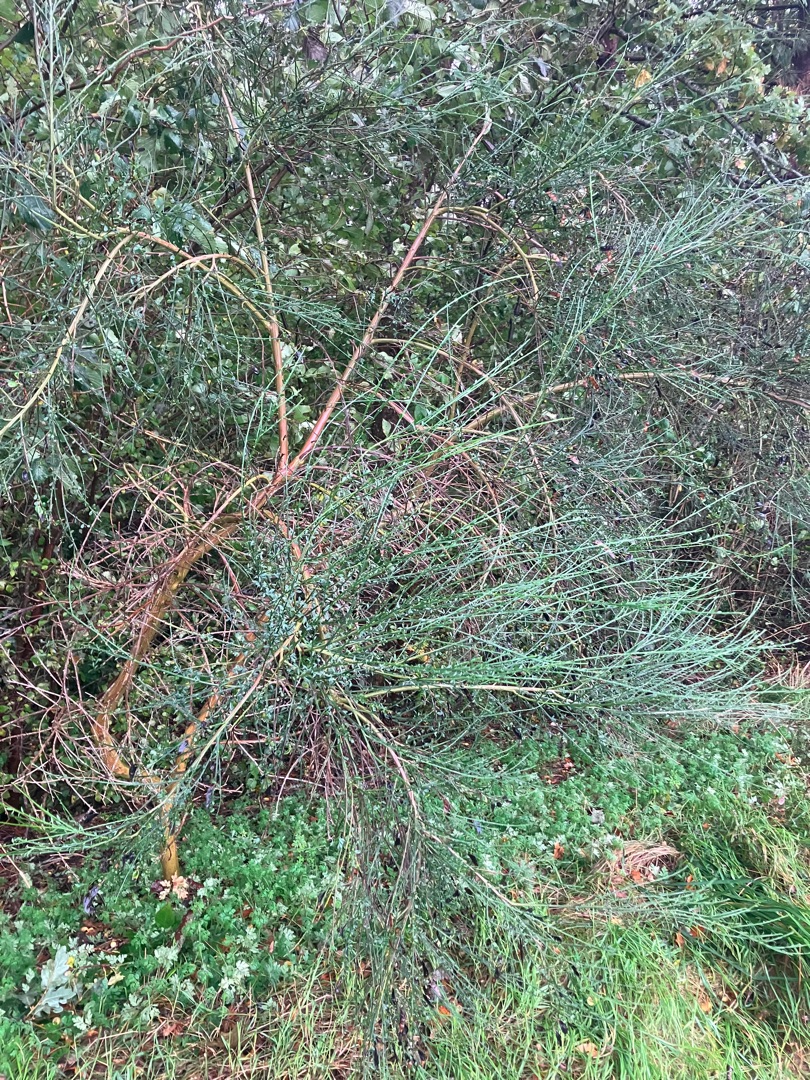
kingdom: Plantae
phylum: Tracheophyta
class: Magnoliopsida
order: Fabales
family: Fabaceae
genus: Cytisus
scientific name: Cytisus scoparius
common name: Almindelig gyvel
